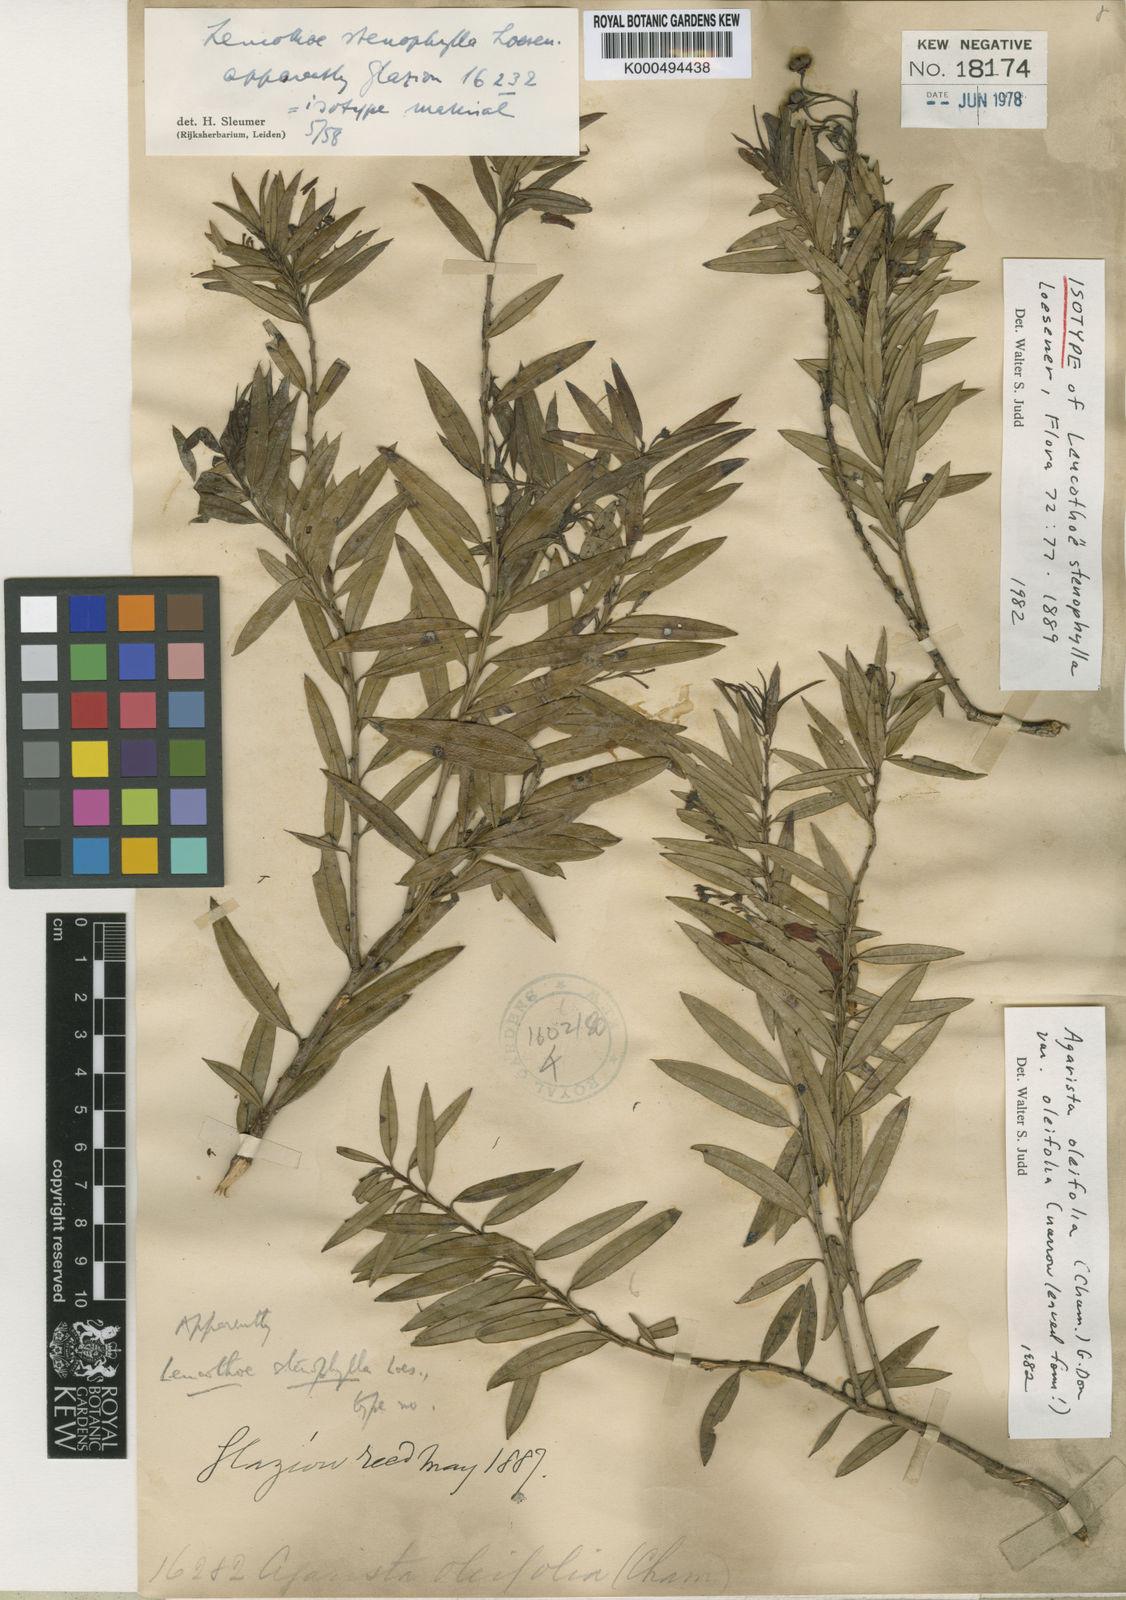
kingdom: Plantae
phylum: Tracheophyta
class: Magnoliopsida
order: Ericales
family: Ericaceae
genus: Agarista
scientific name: Agarista oleifolia
